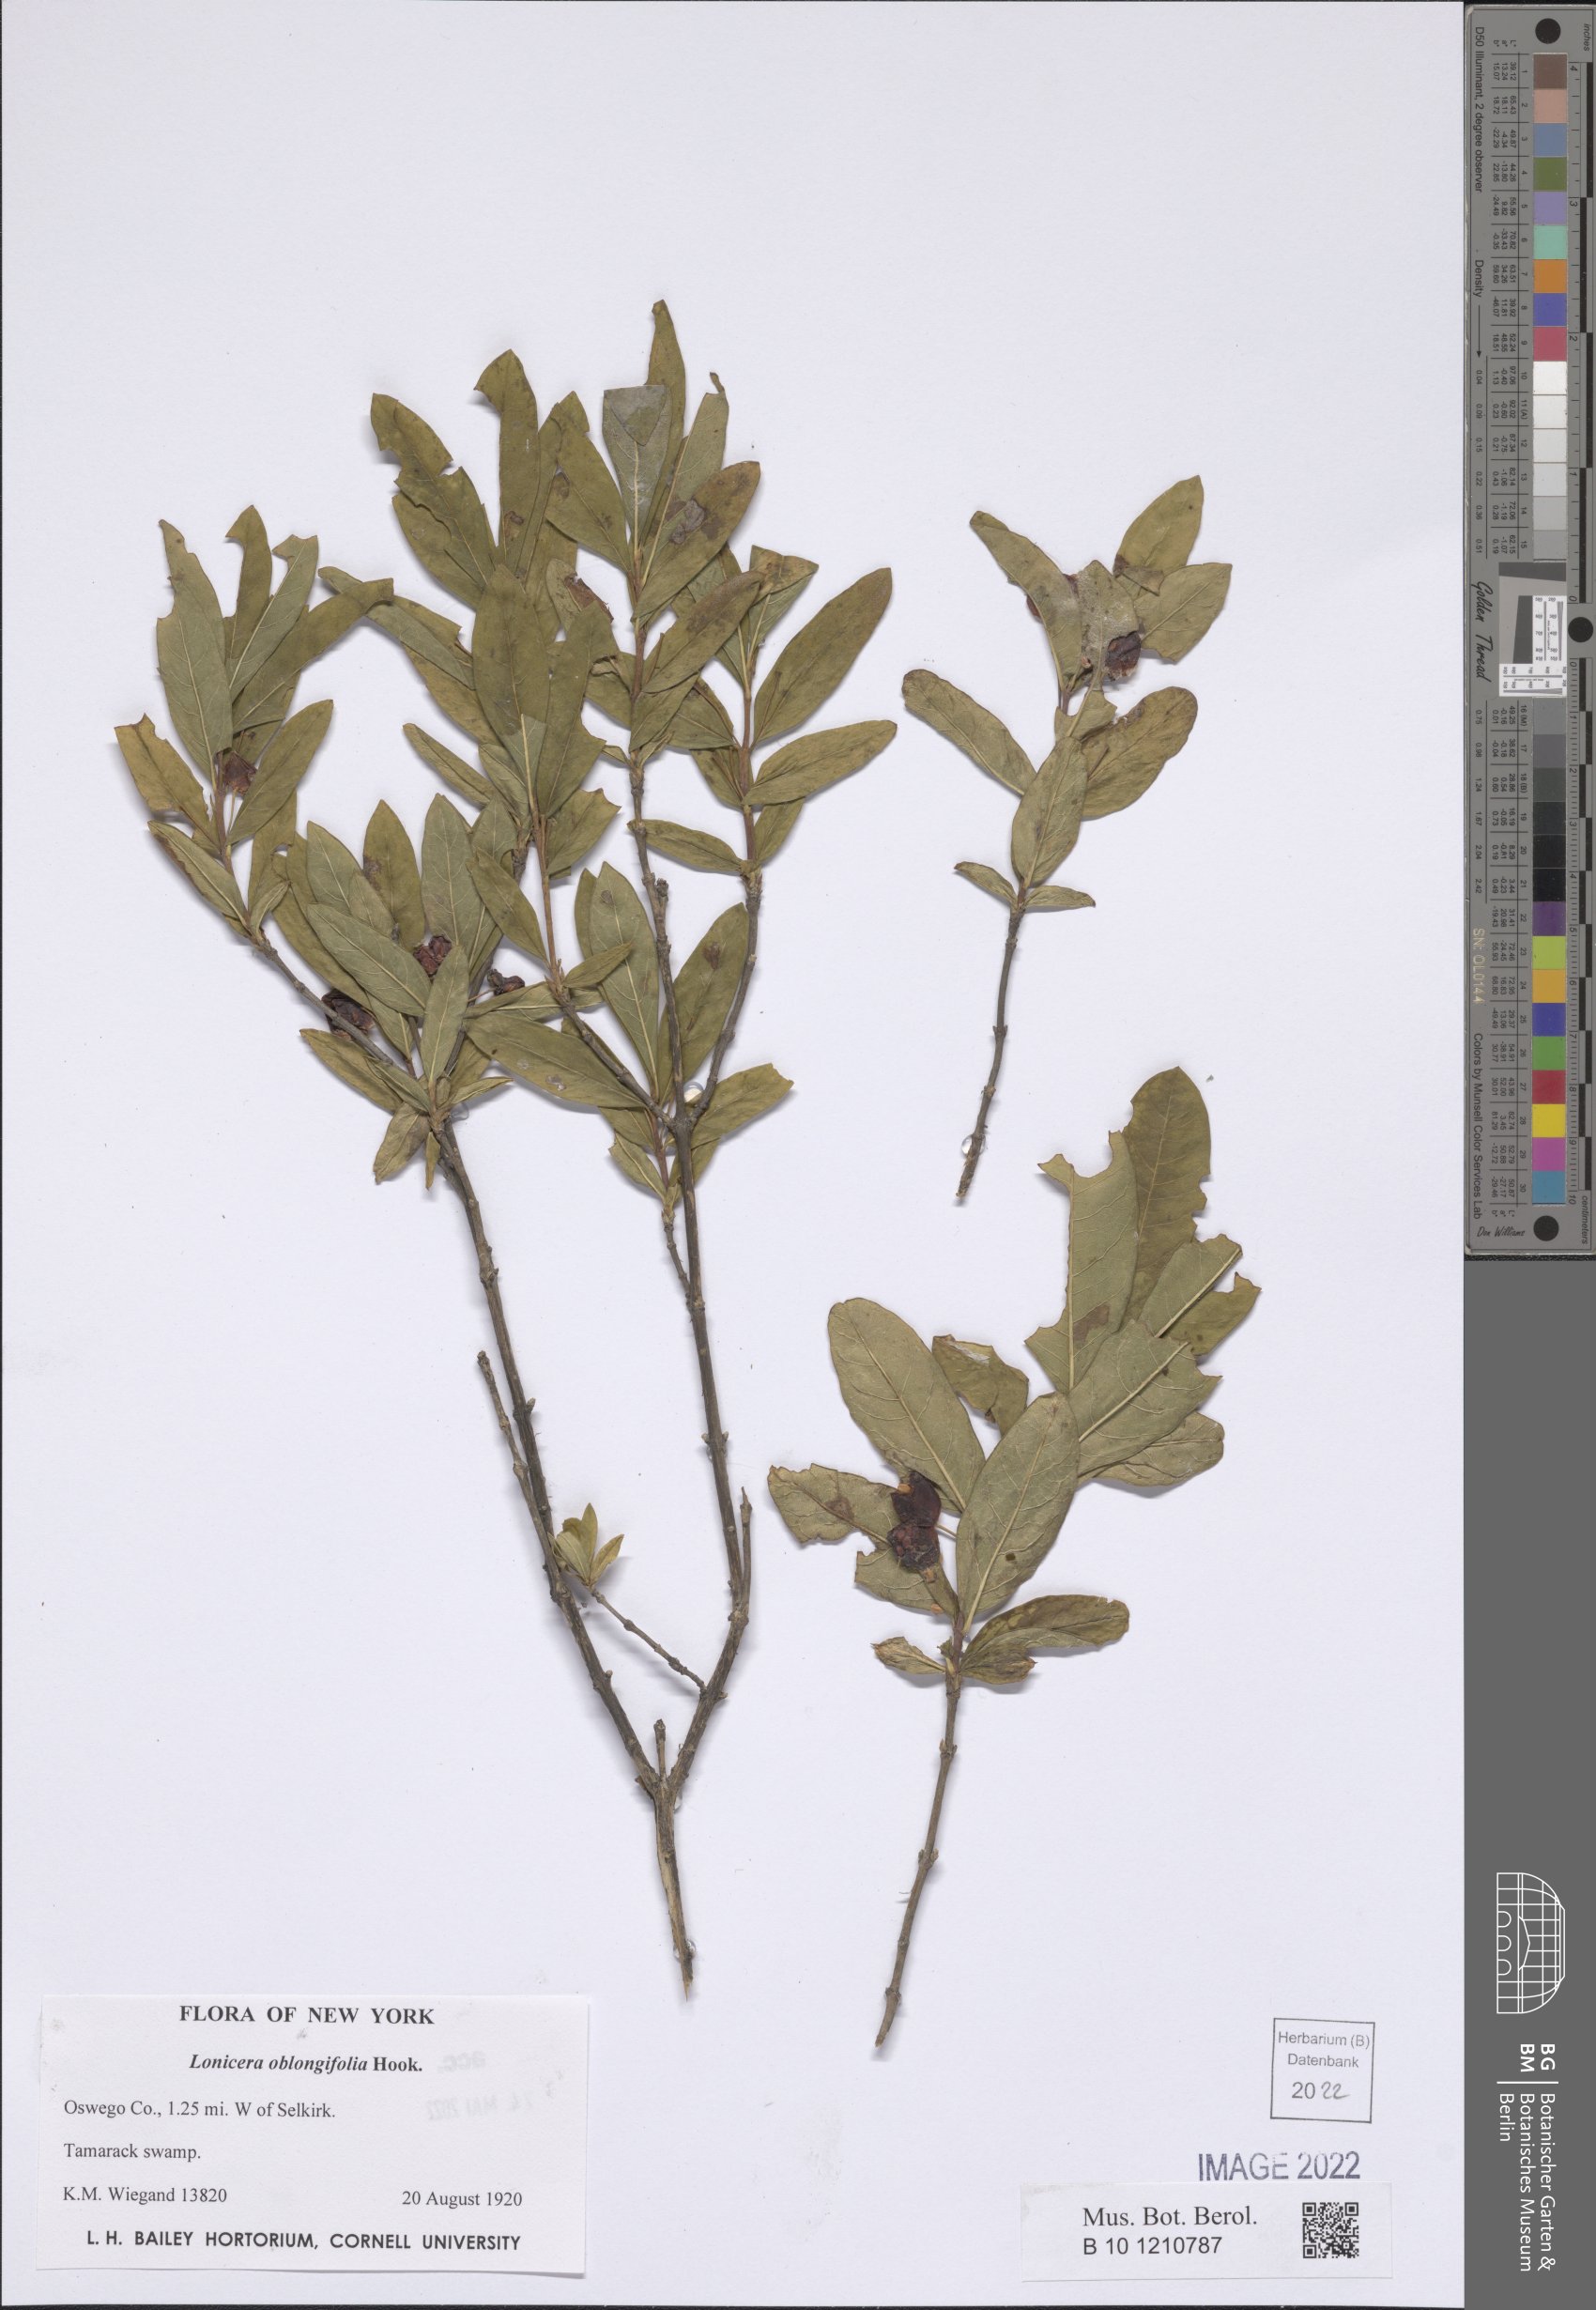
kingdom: Plantae
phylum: Tracheophyta
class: Magnoliopsida
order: Dipsacales
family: Caprifoliaceae
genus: Lonicera
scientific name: Lonicera oblongifolia
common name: Swamp fly honeysuckle
